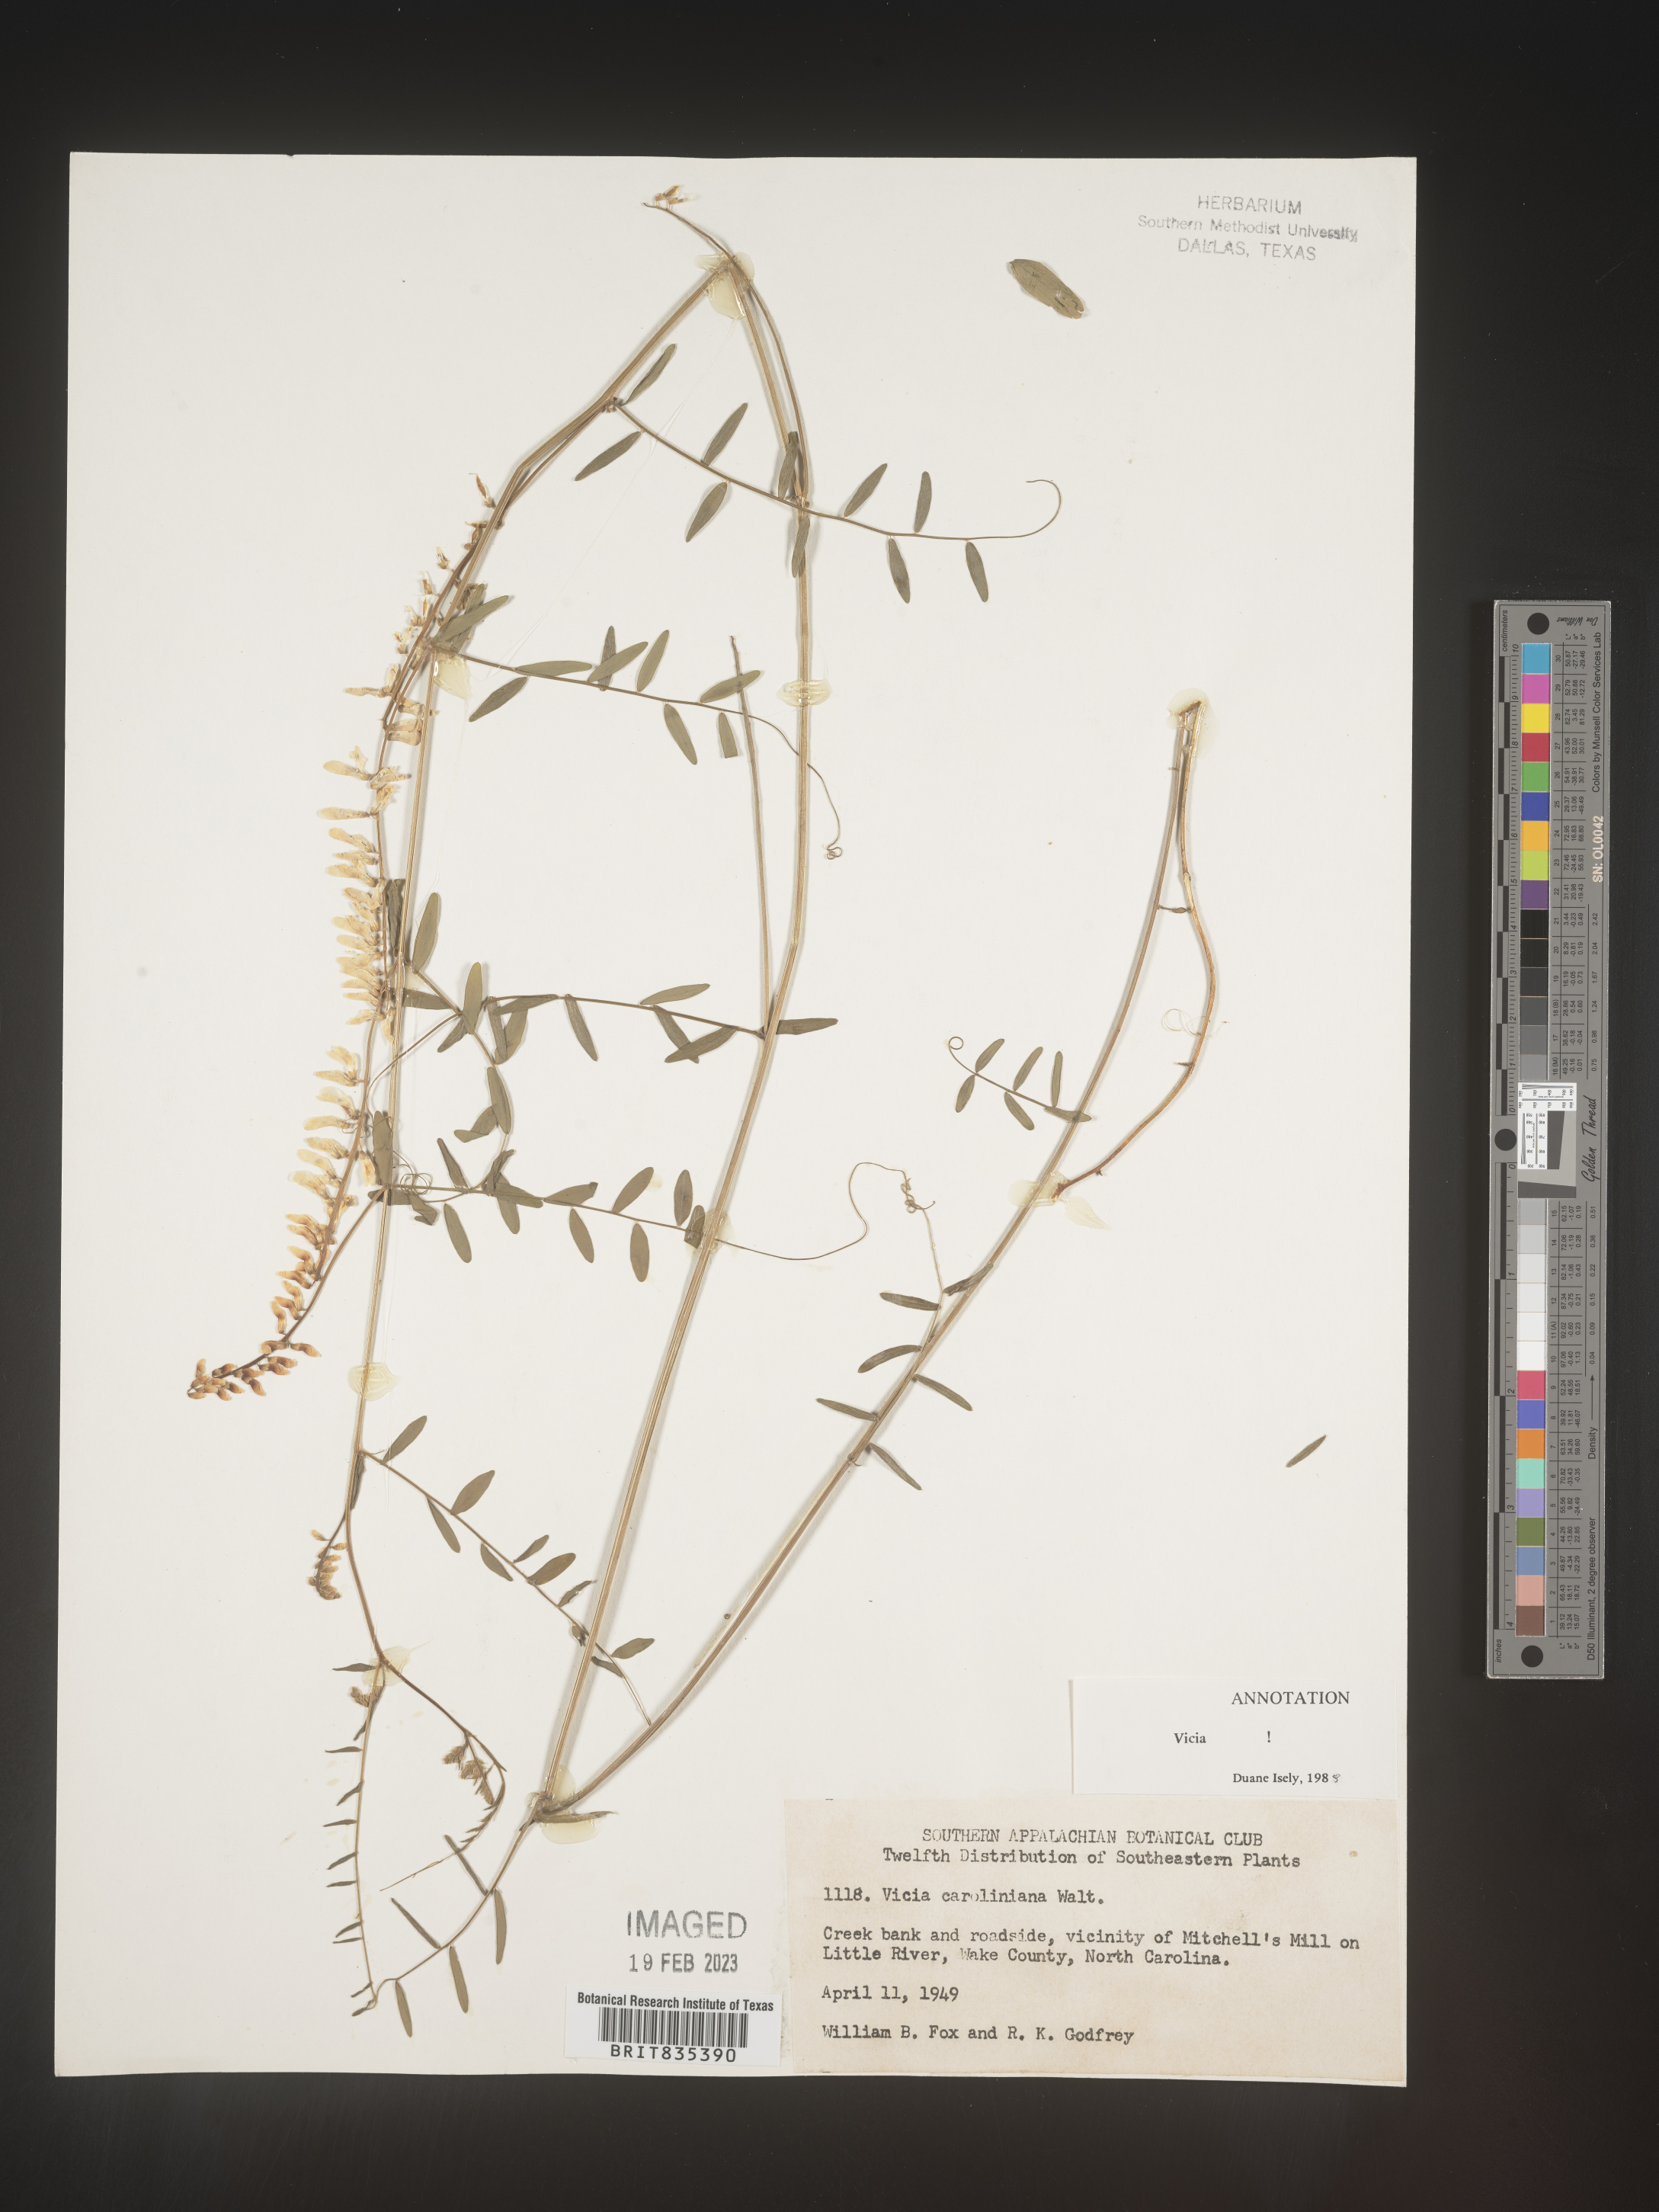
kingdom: Plantae
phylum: Tracheophyta
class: Magnoliopsida
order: Fabales
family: Fabaceae
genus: Vicia
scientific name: Vicia caroliniana
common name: Carolina vetch
